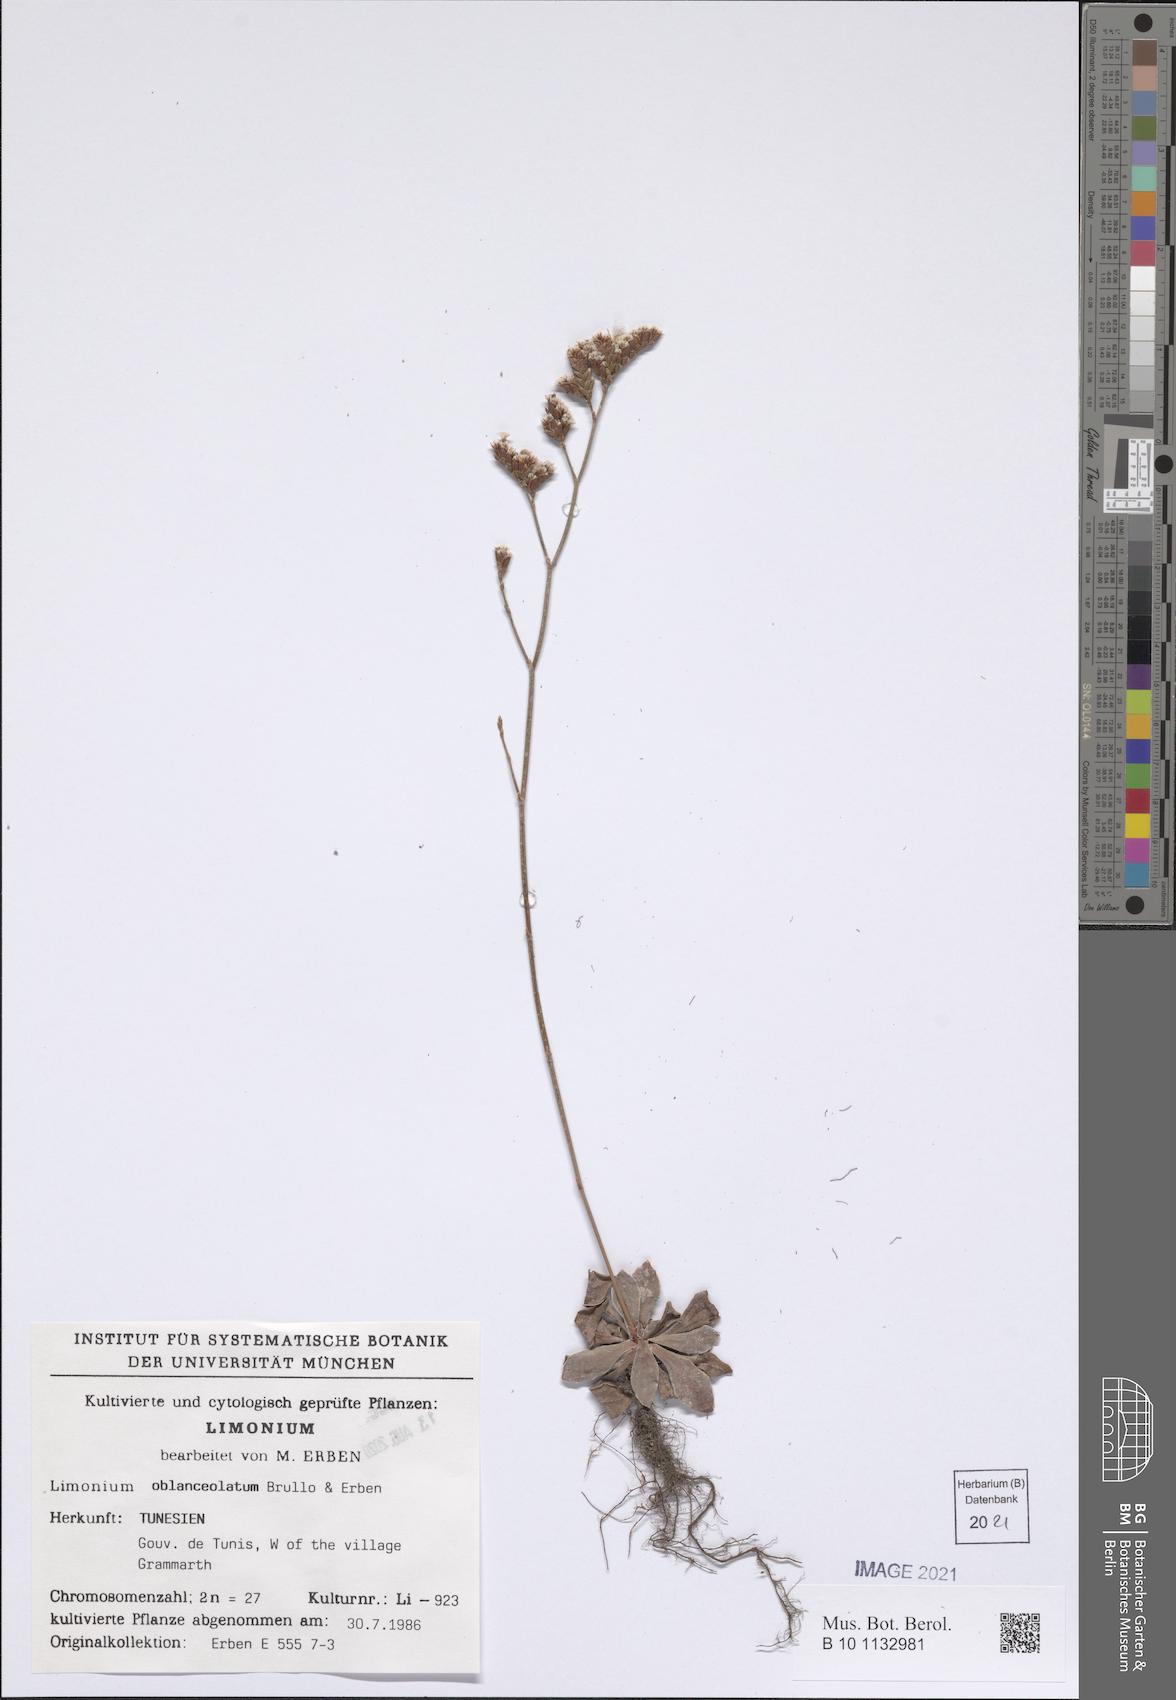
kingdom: Plantae
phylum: Tracheophyta
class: Magnoliopsida
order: Caryophyllales
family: Plumbaginaceae
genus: Limonium
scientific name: Limonium oblanceolatum
